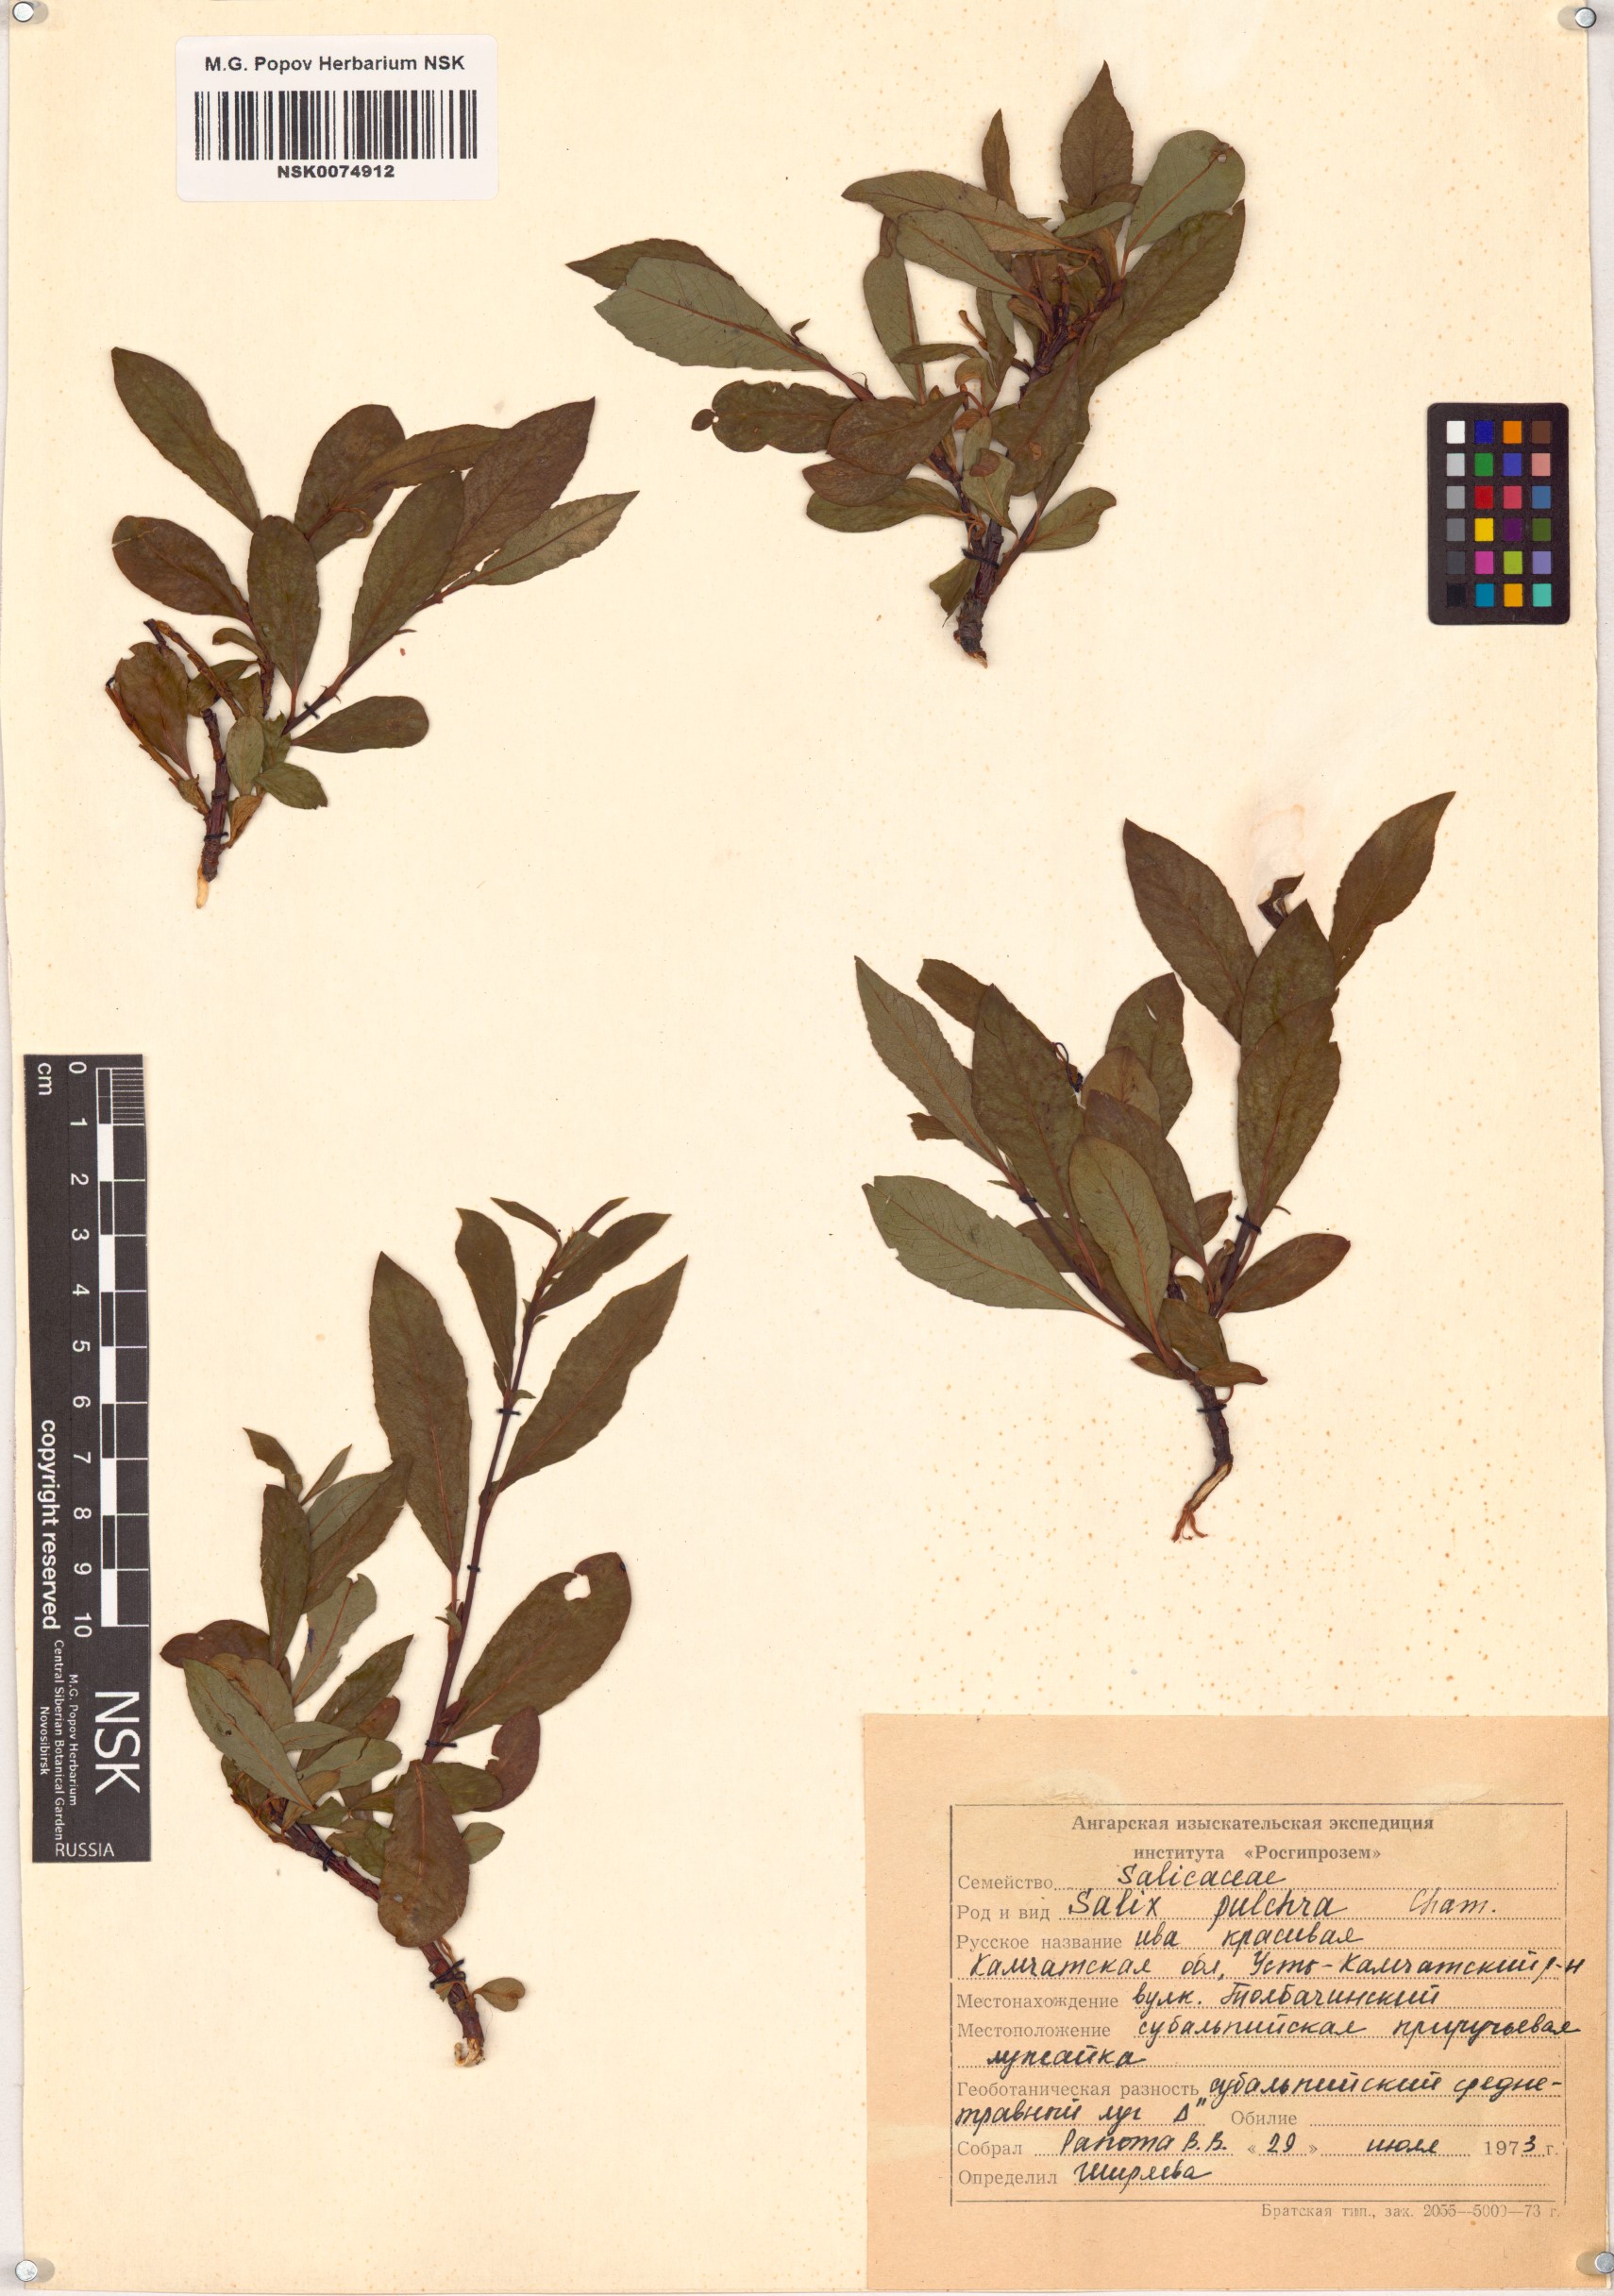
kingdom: Plantae
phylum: Tracheophyta
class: Magnoliopsida
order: Malpighiales
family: Salicaceae
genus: Salix
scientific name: Salix pulchra
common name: Diamond-leaved willow
